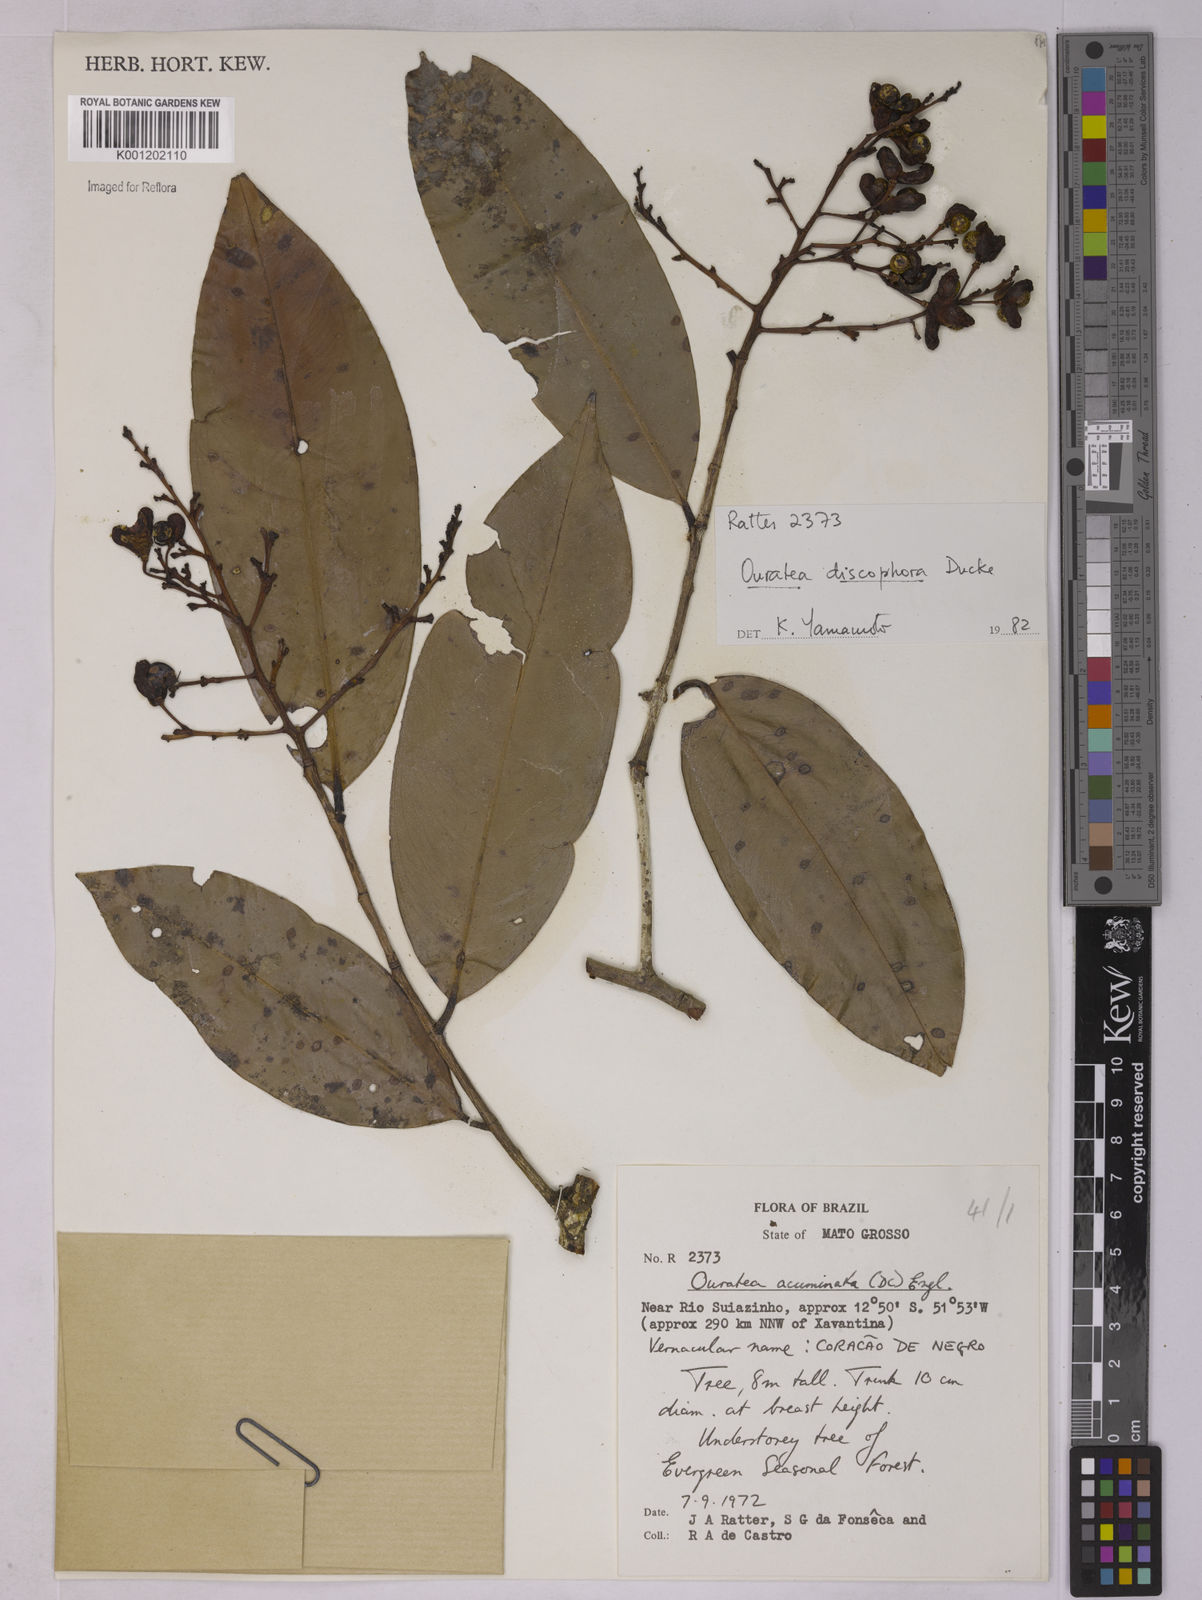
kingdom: Plantae
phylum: Tracheophyta
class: Magnoliopsida
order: Malpighiales
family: Ochnaceae
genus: Ouratea
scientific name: Ouratea discophora
